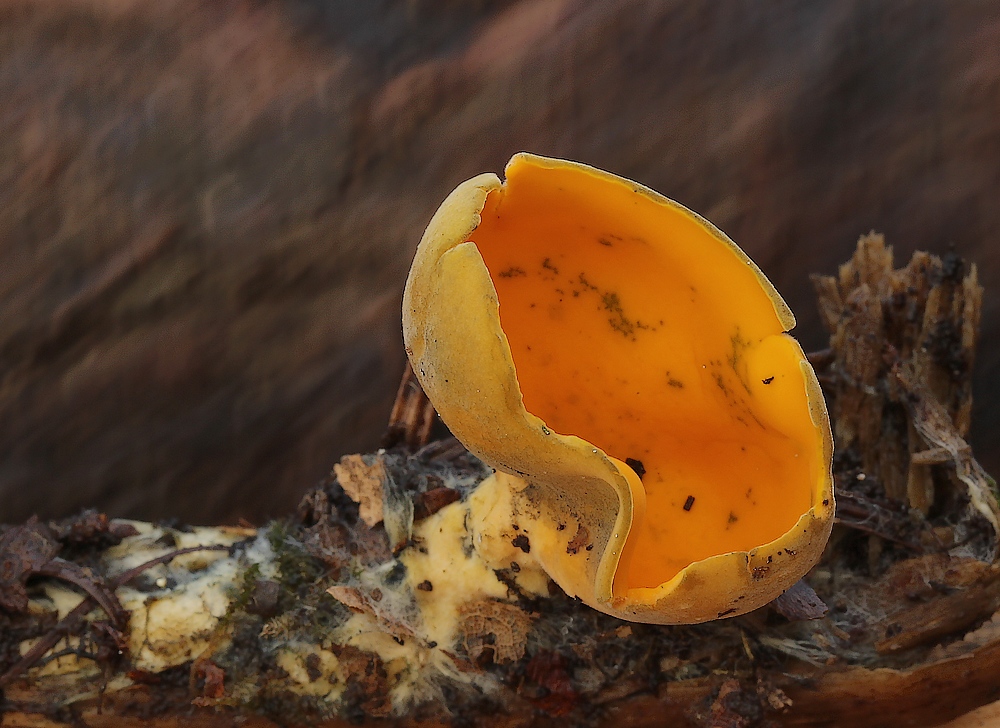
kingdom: Fungi
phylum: Ascomycota
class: Pezizomycetes
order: Pezizales
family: Caloscyphaceae
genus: Caloscypha
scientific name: Caloscypha fulgens
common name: jadebæger
